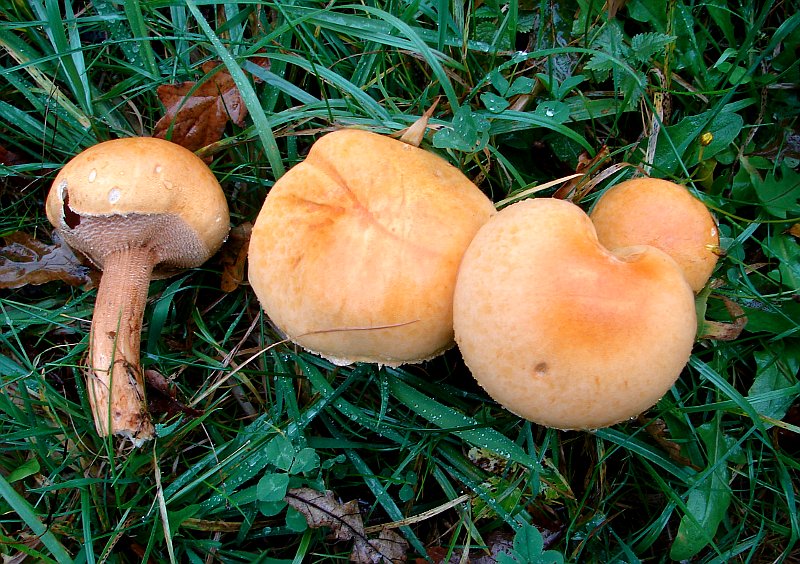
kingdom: Fungi
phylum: Basidiomycota
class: Agaricomycetes
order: Agaricales
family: Tricholomataceae
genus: Phaeolepiota
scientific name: Phaeolepiota aurea
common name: gyldenhat
